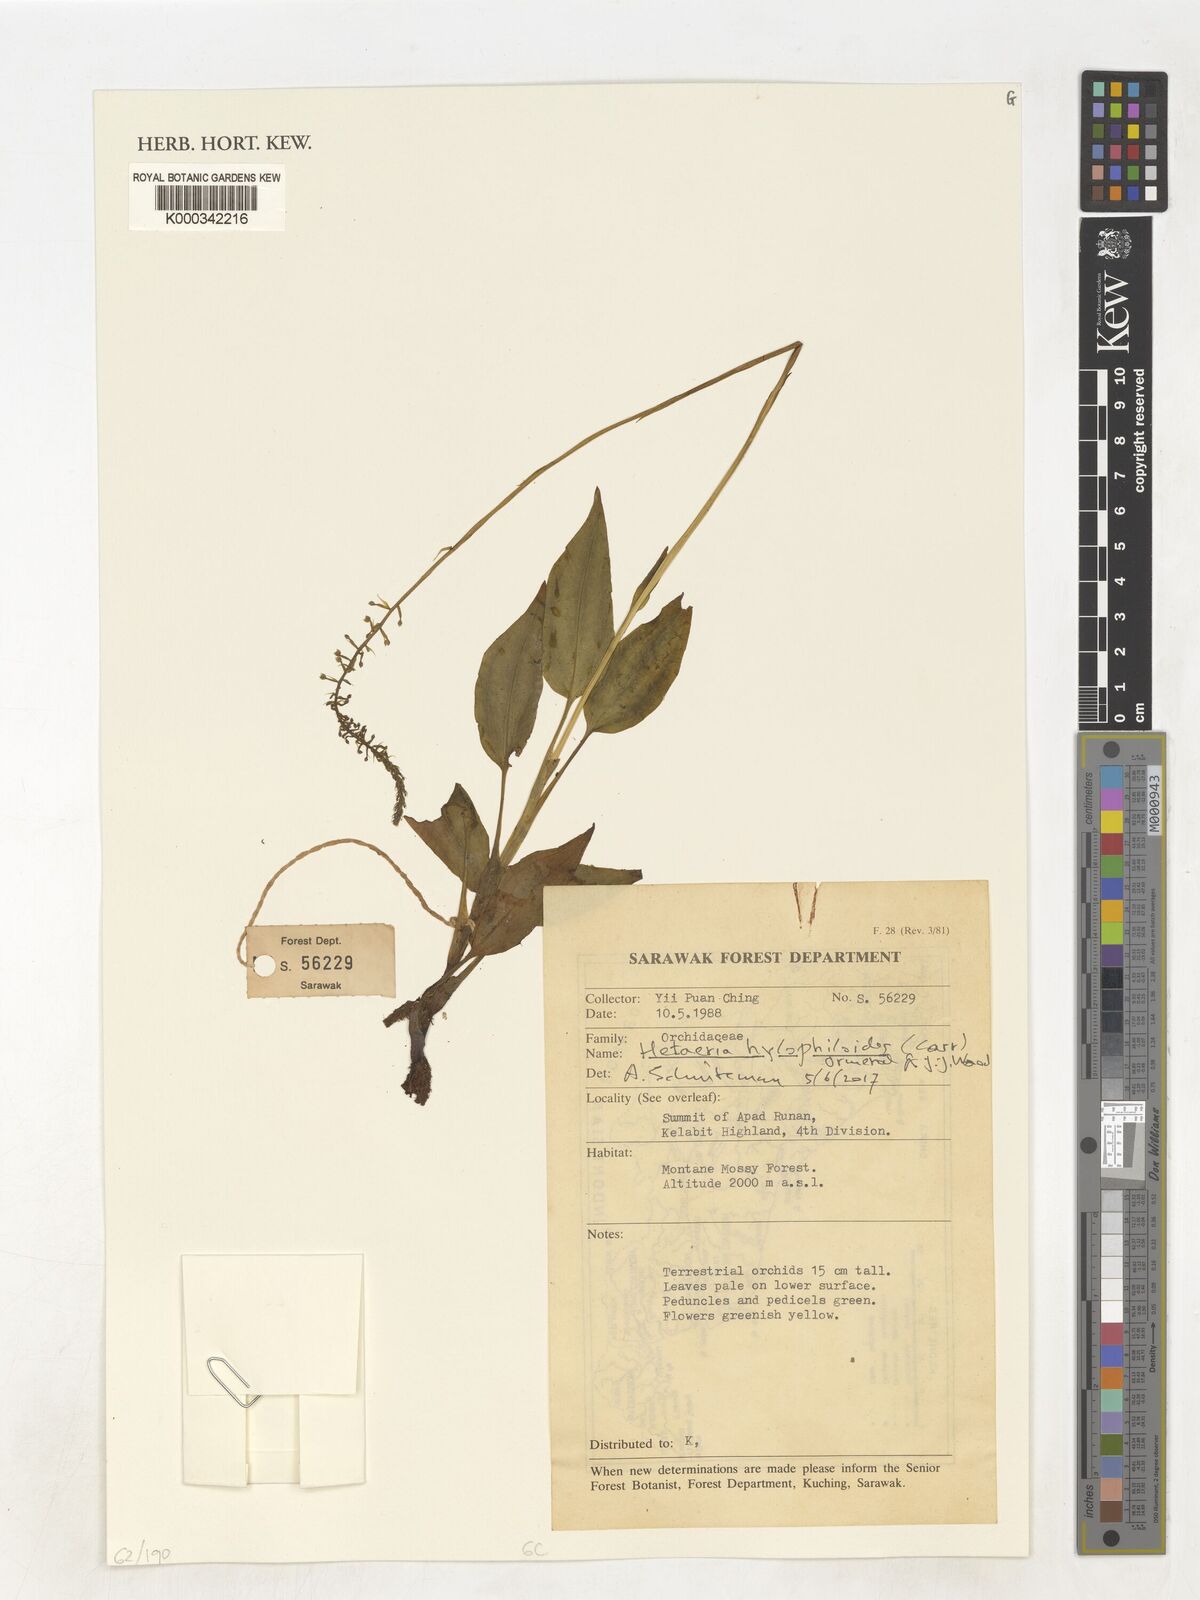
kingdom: Plantae
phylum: Tracheophyta
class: Liliopsida
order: Asparagales
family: Orchidaceae
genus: Hetaeria
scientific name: Hetaeria hylophiloides
